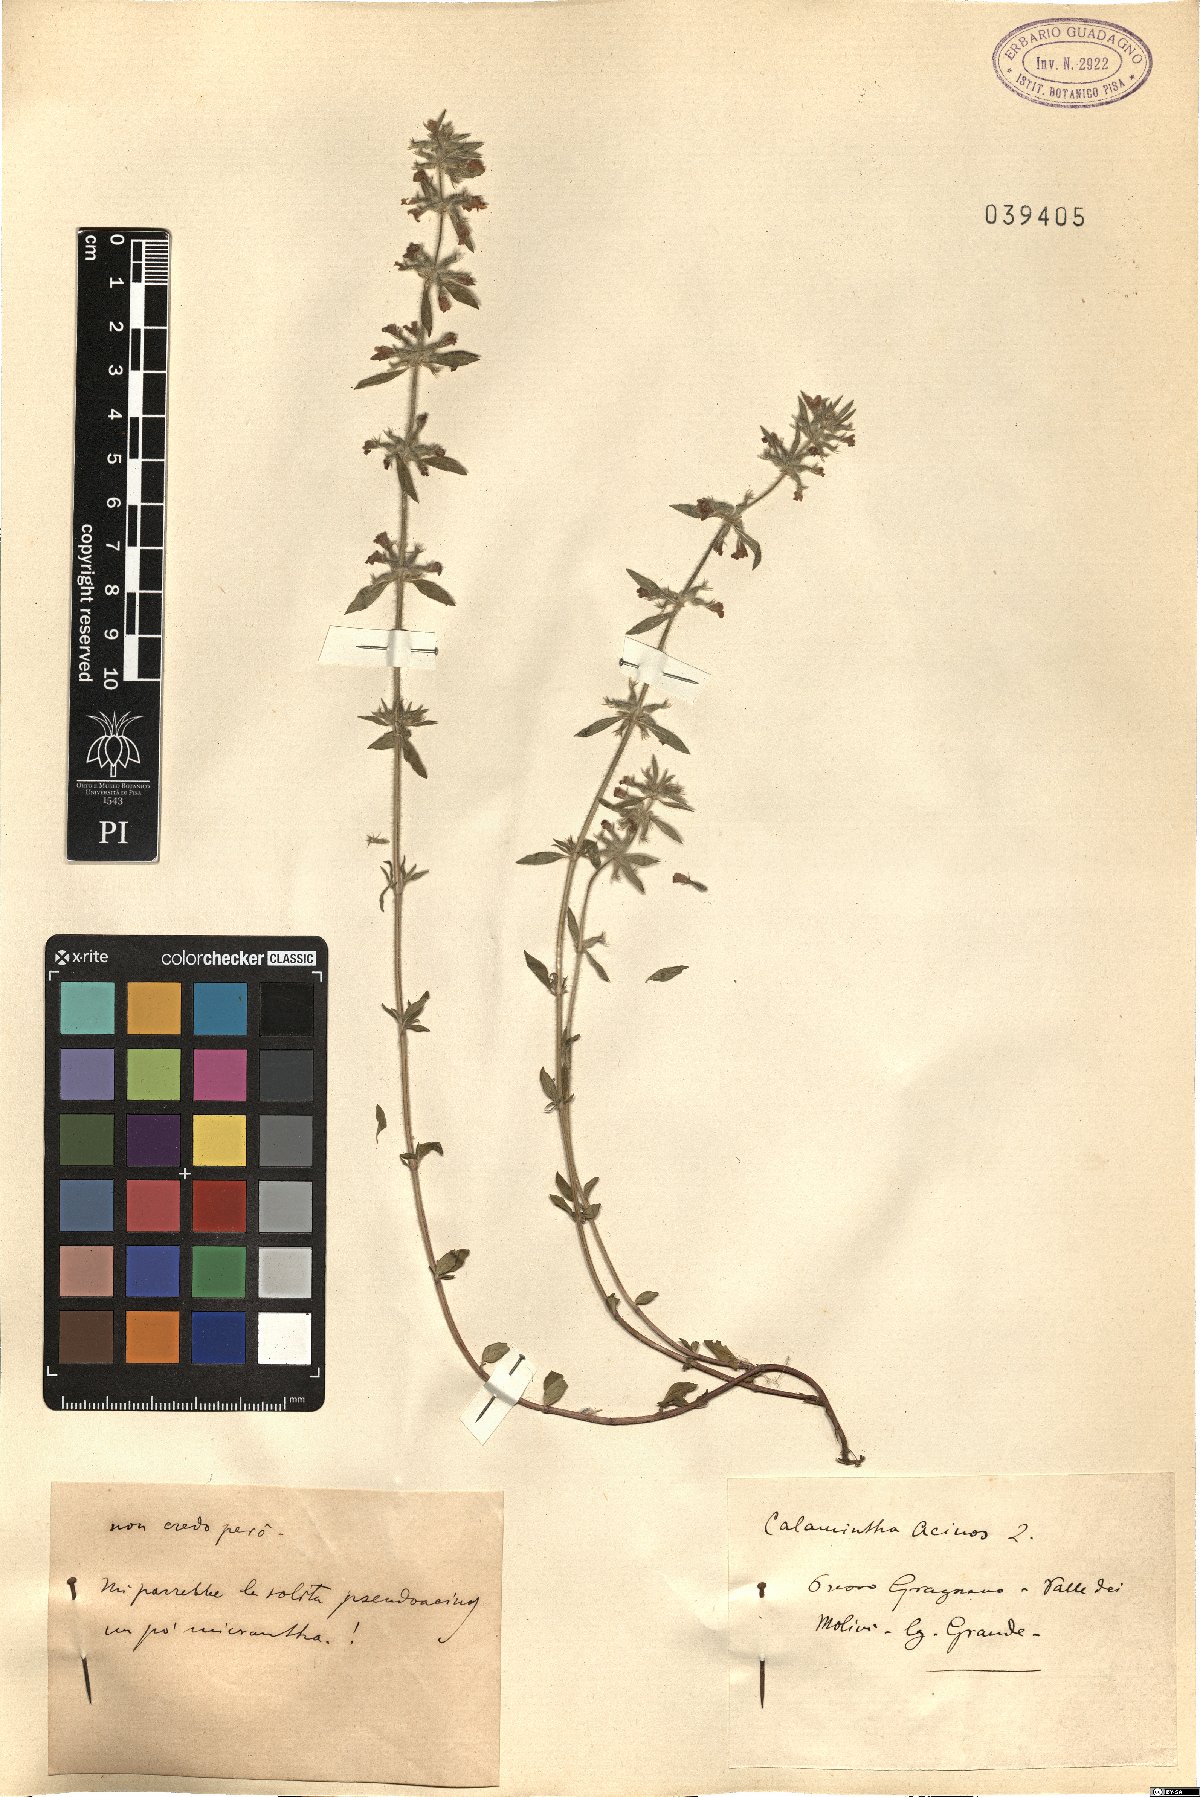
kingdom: Plantae
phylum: Tracheophyta
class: Magnoliopsida
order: Lamiales
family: Lamiaceae
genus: Clinopodium
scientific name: Clinopodium acinos
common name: Basil thyme
